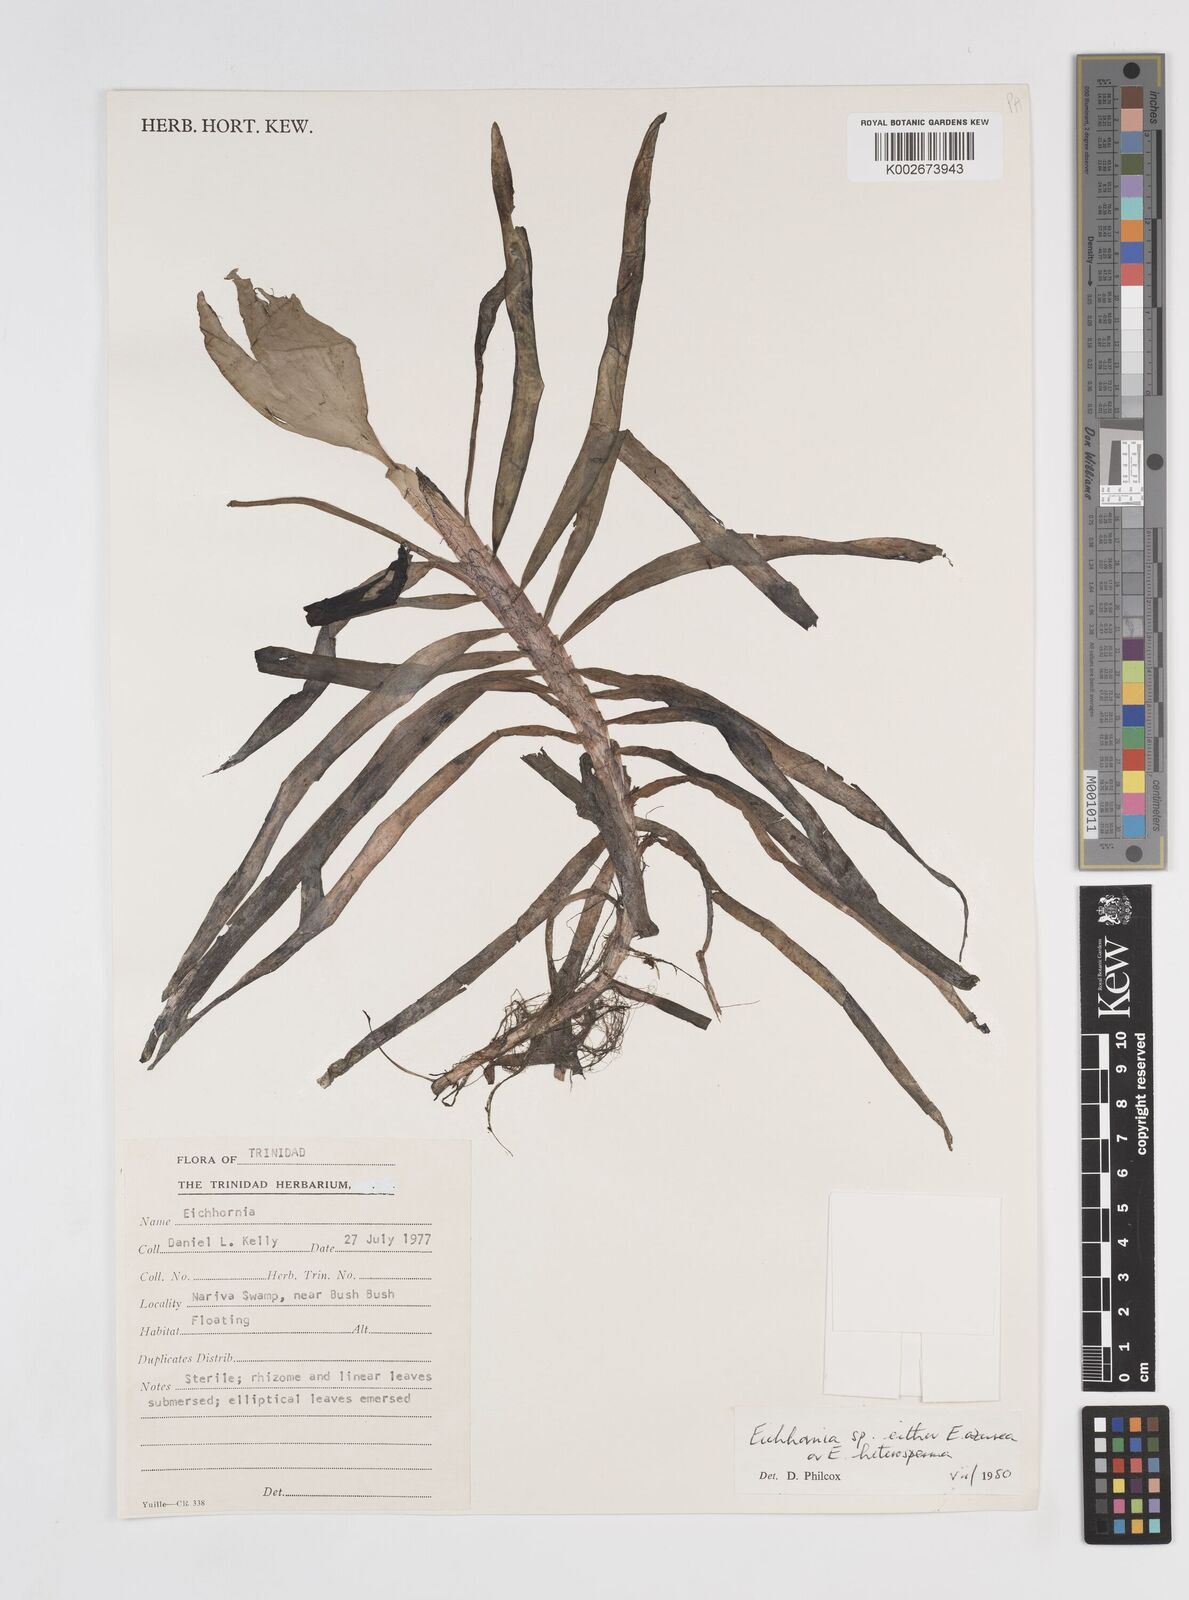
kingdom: Plantae
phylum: Tracheophyta
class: Liliopsida
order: Commelinales
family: Pontederiaceae
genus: Pontederia
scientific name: Pontederia azurea
